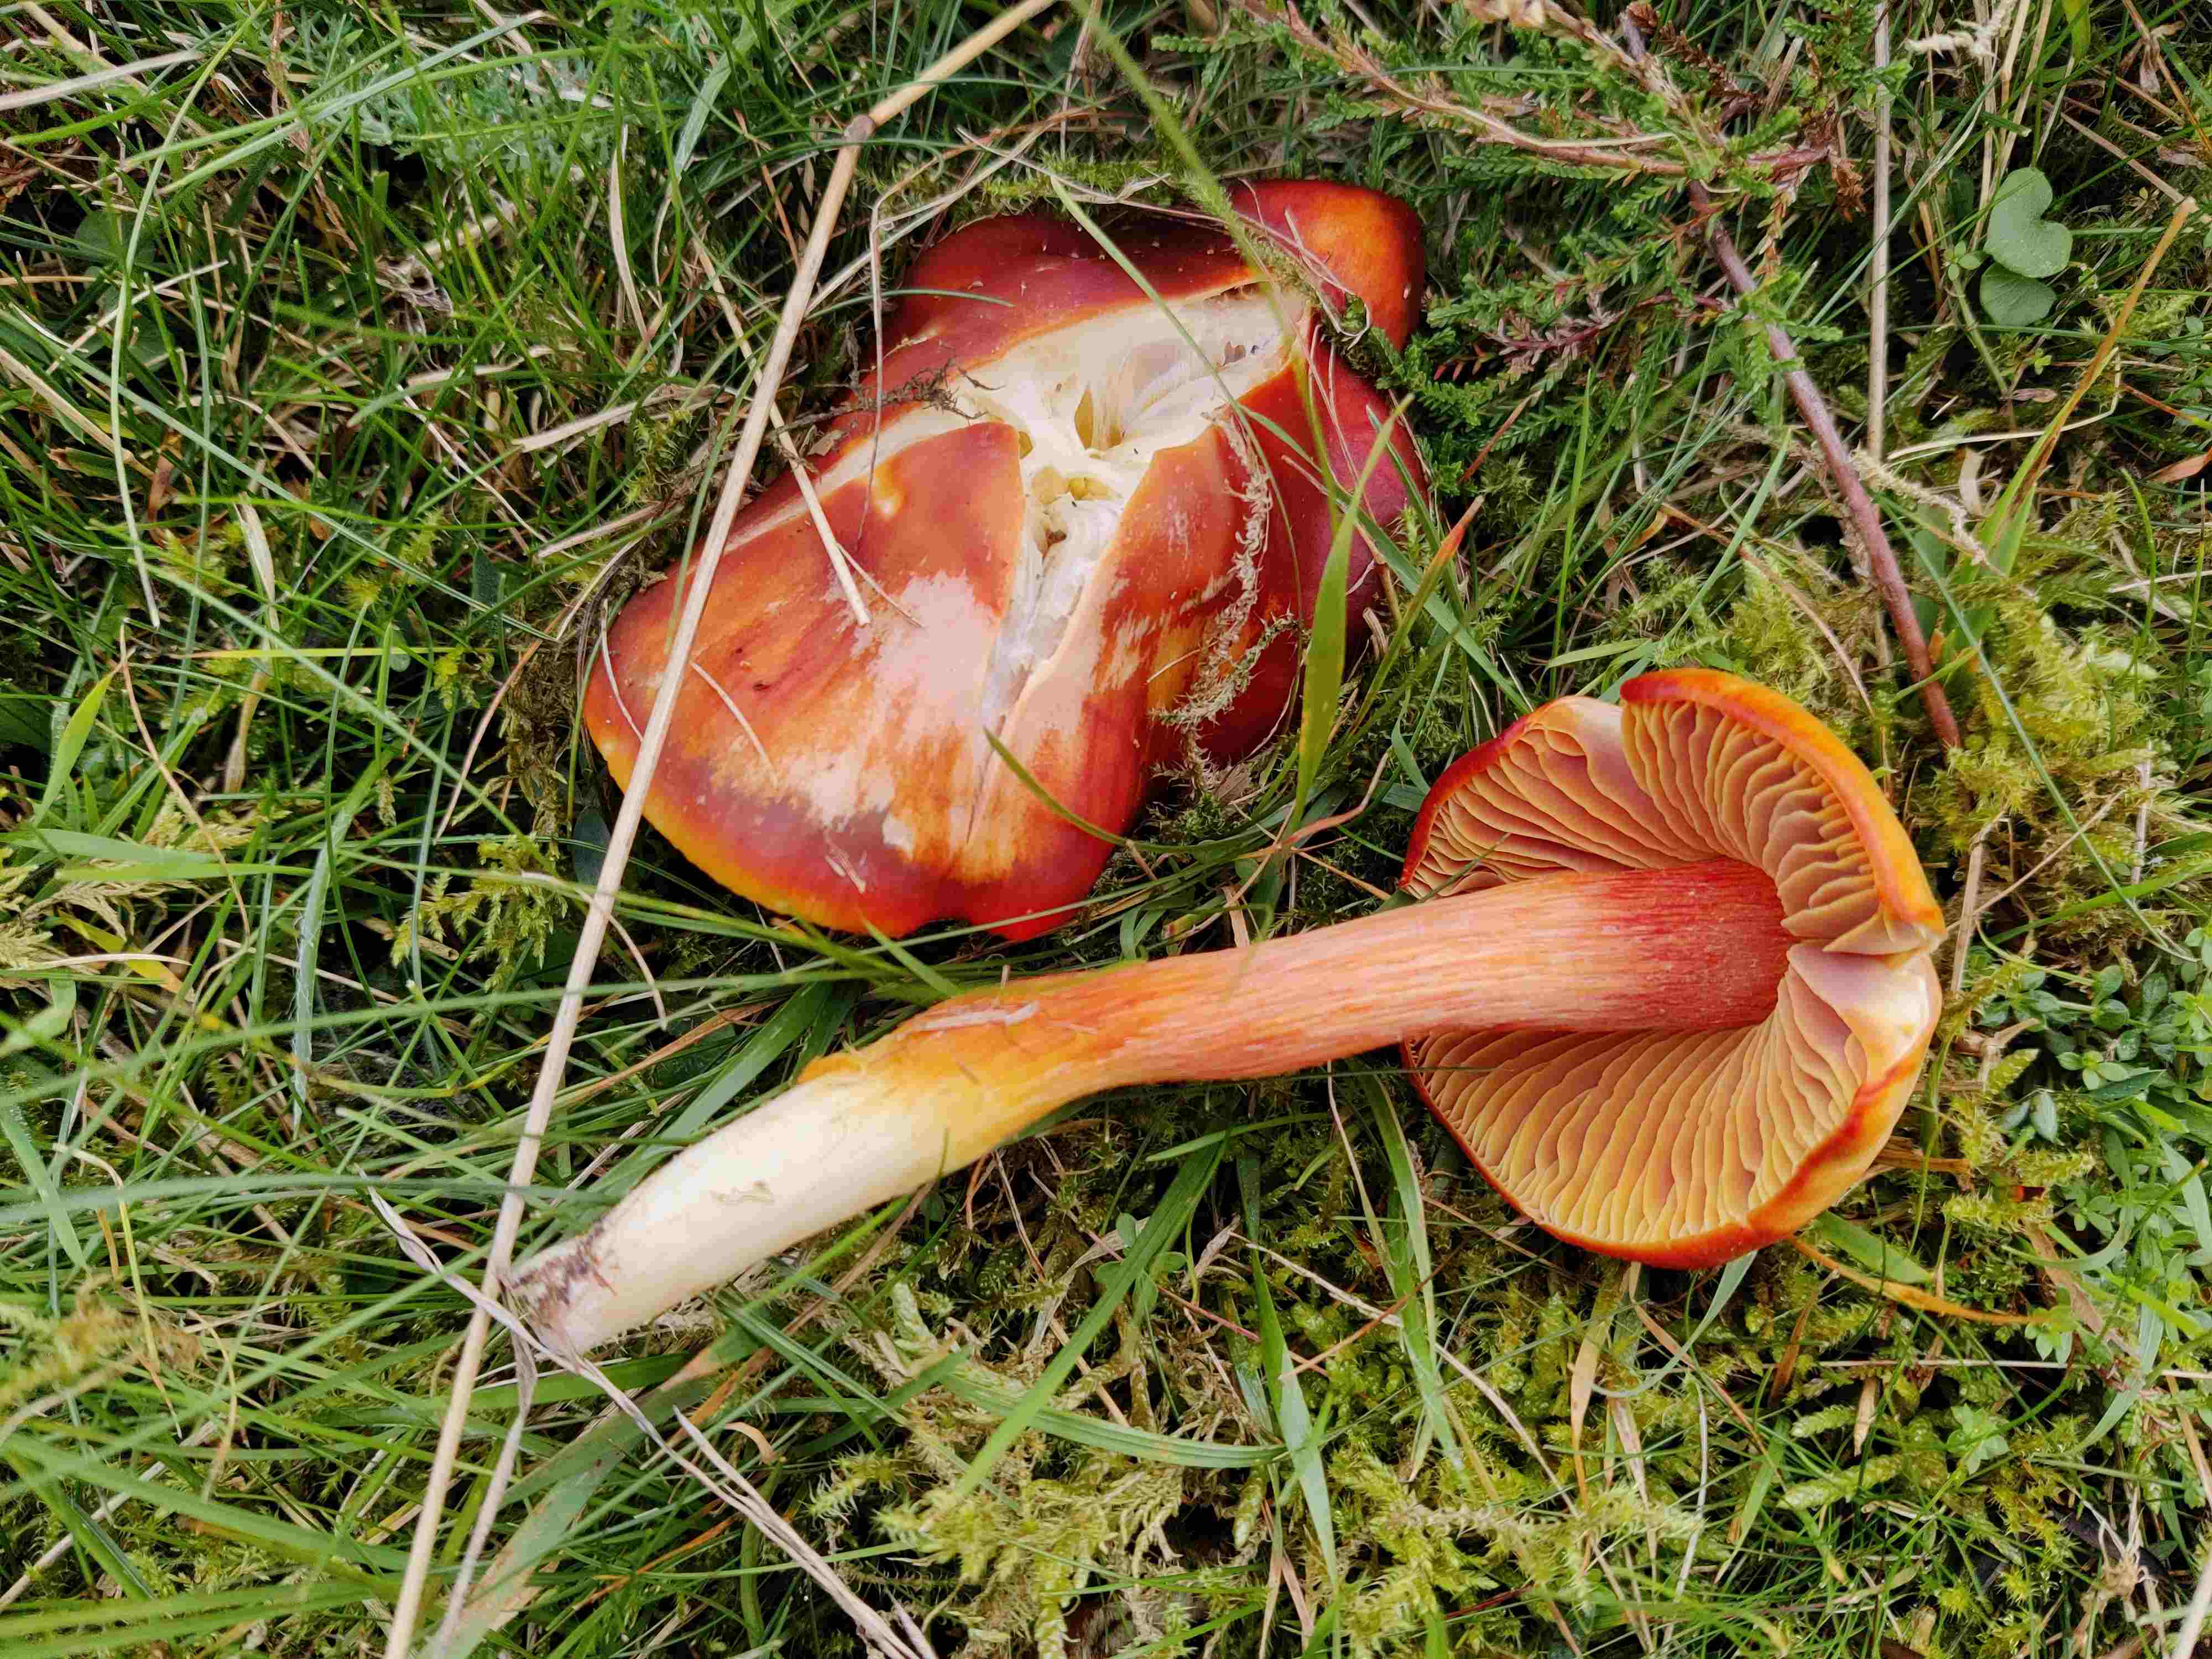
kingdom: Fungi
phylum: Basidiomycota
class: Agaricomycetes
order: Agaricales
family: Hygrophoraceae
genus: Hygrocybe
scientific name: Hygrocybe punicea
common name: skarlagen-vokshat
